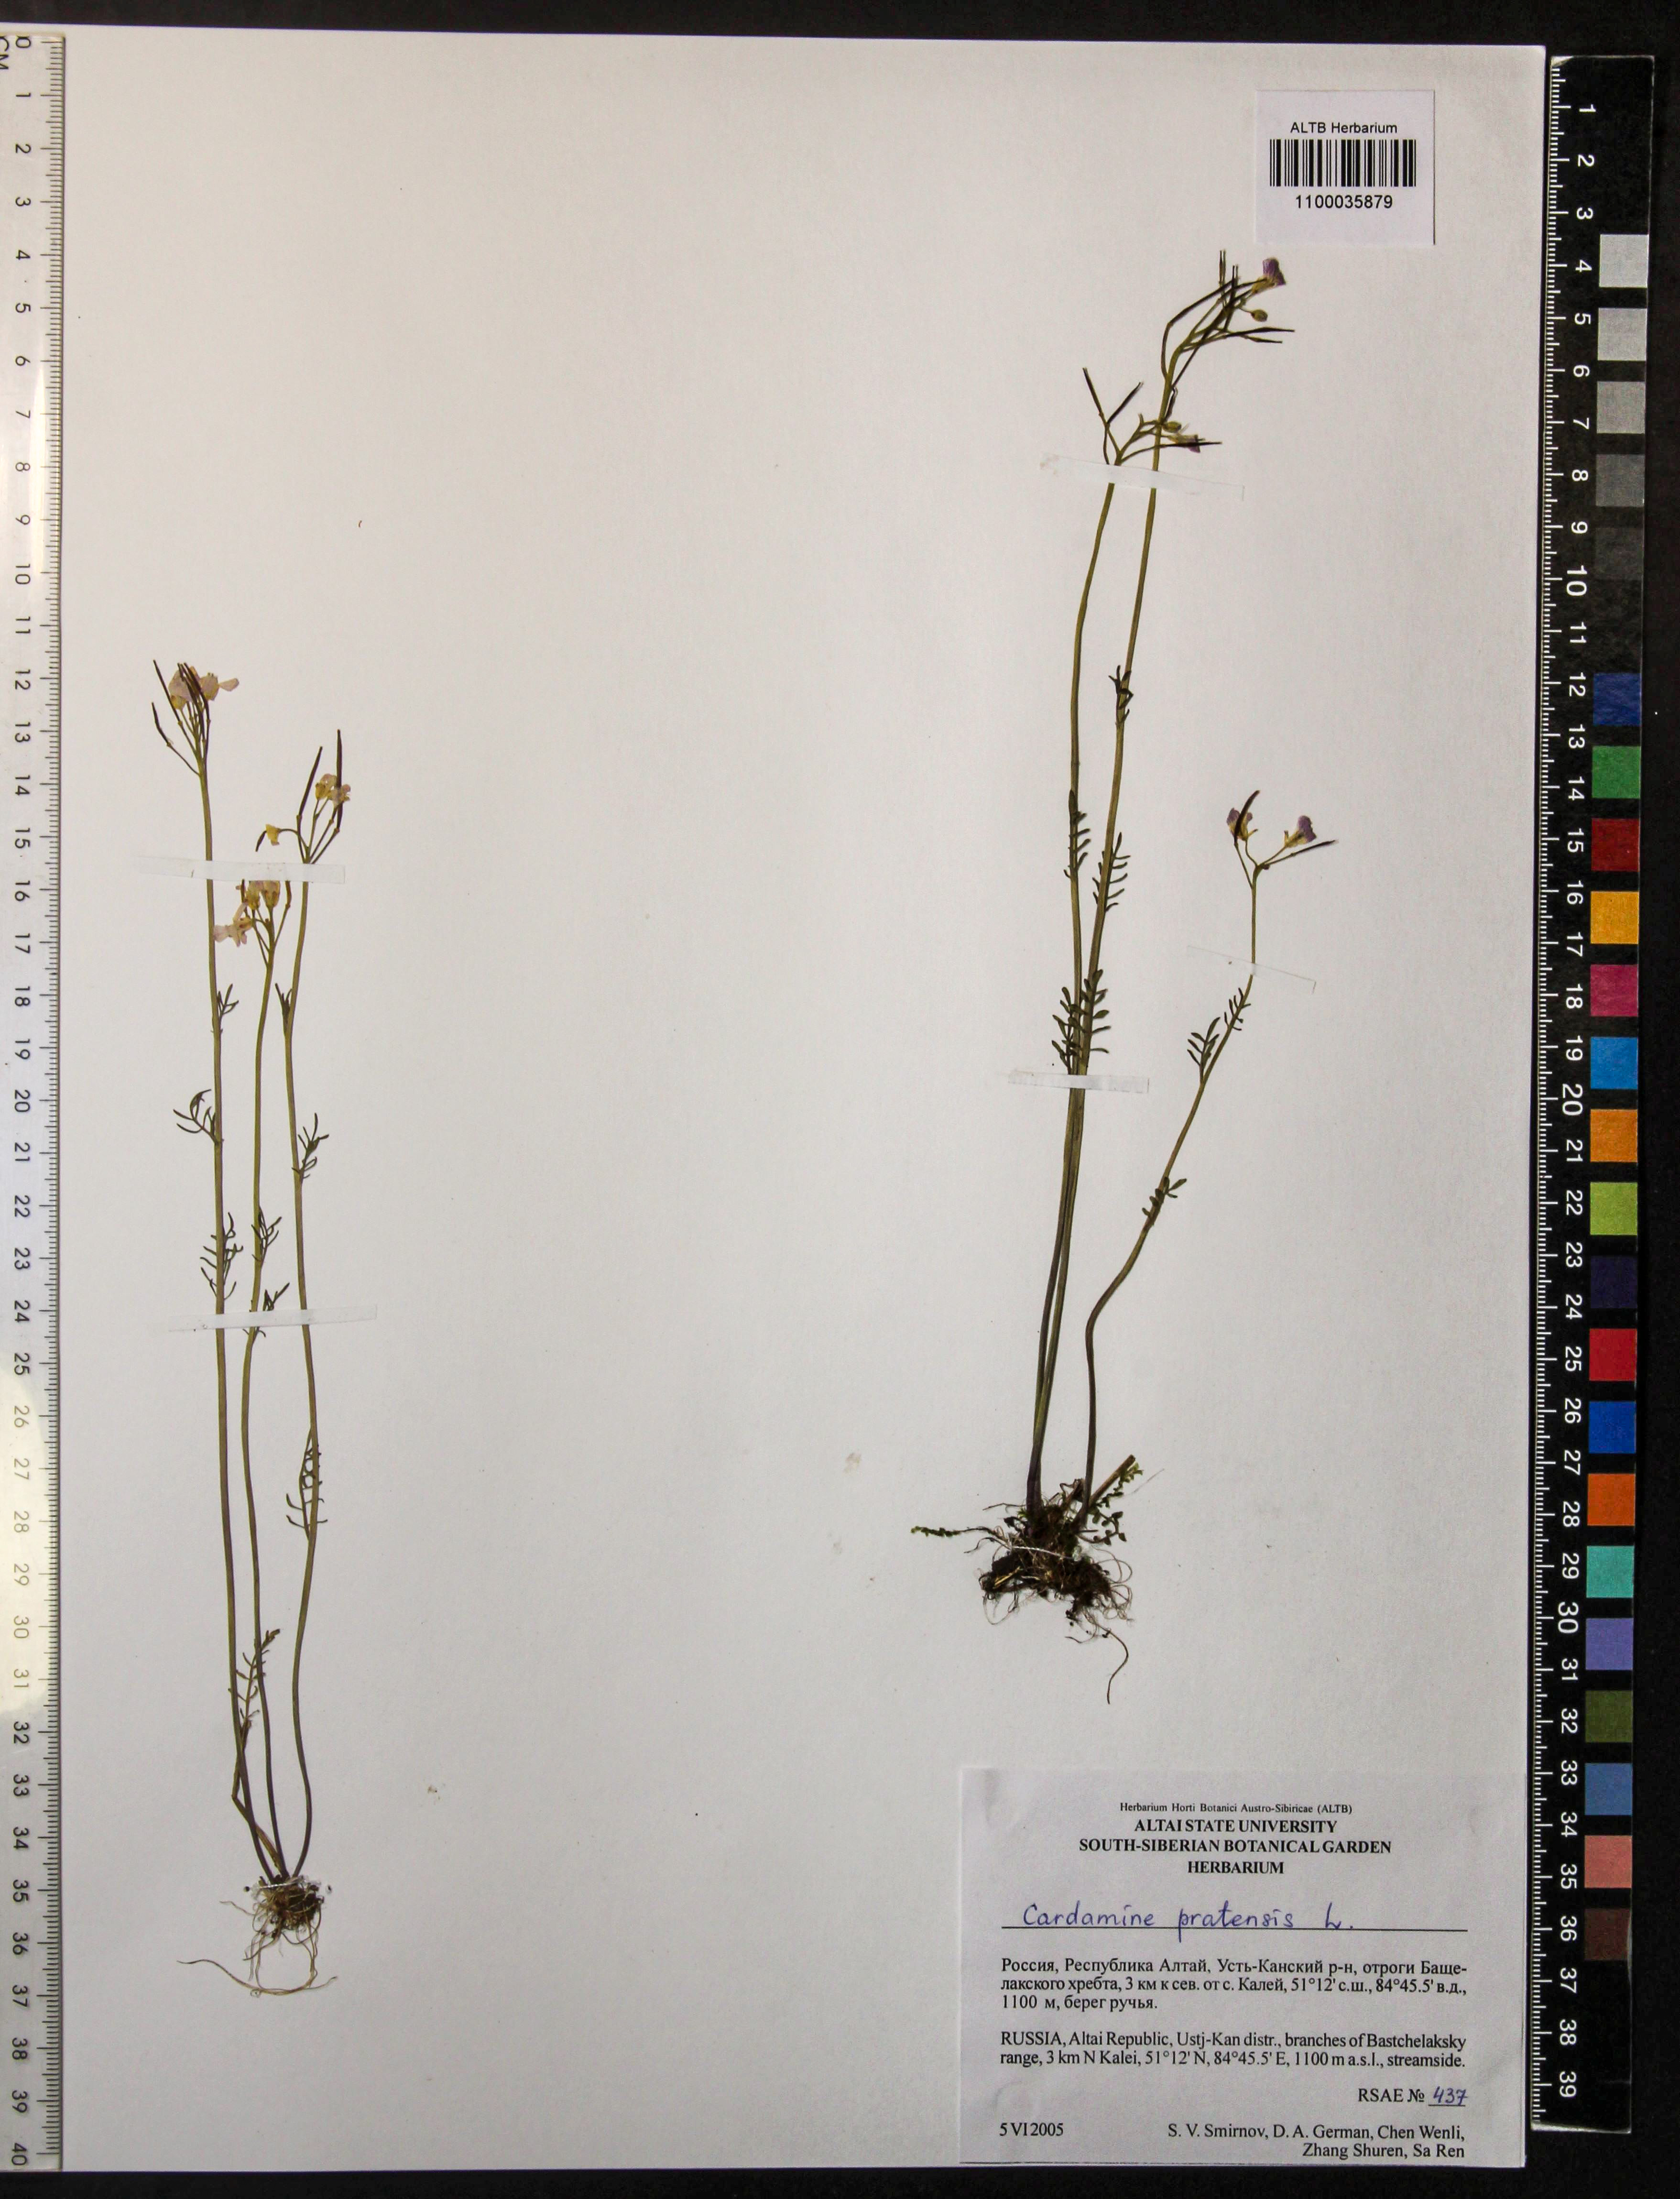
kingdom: Plantae
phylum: Tracheophyta
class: Magnoliopsida
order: Brassicales
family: Brassicaceae
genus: Cardamine
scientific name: Cardamine pratensis
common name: Cuckoo flower
